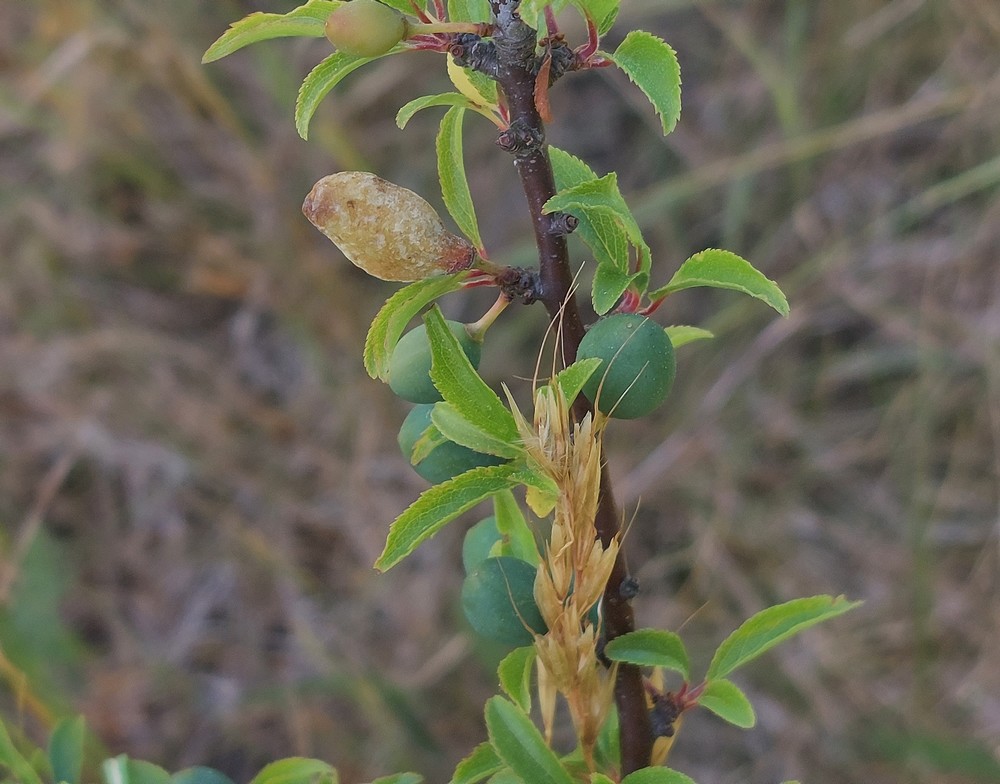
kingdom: Fungi
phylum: Ascomycota
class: Taphrinomycetes
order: Taphrinales
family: Taphrinaceae
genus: Taphrina
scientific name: Taphrina pruni
